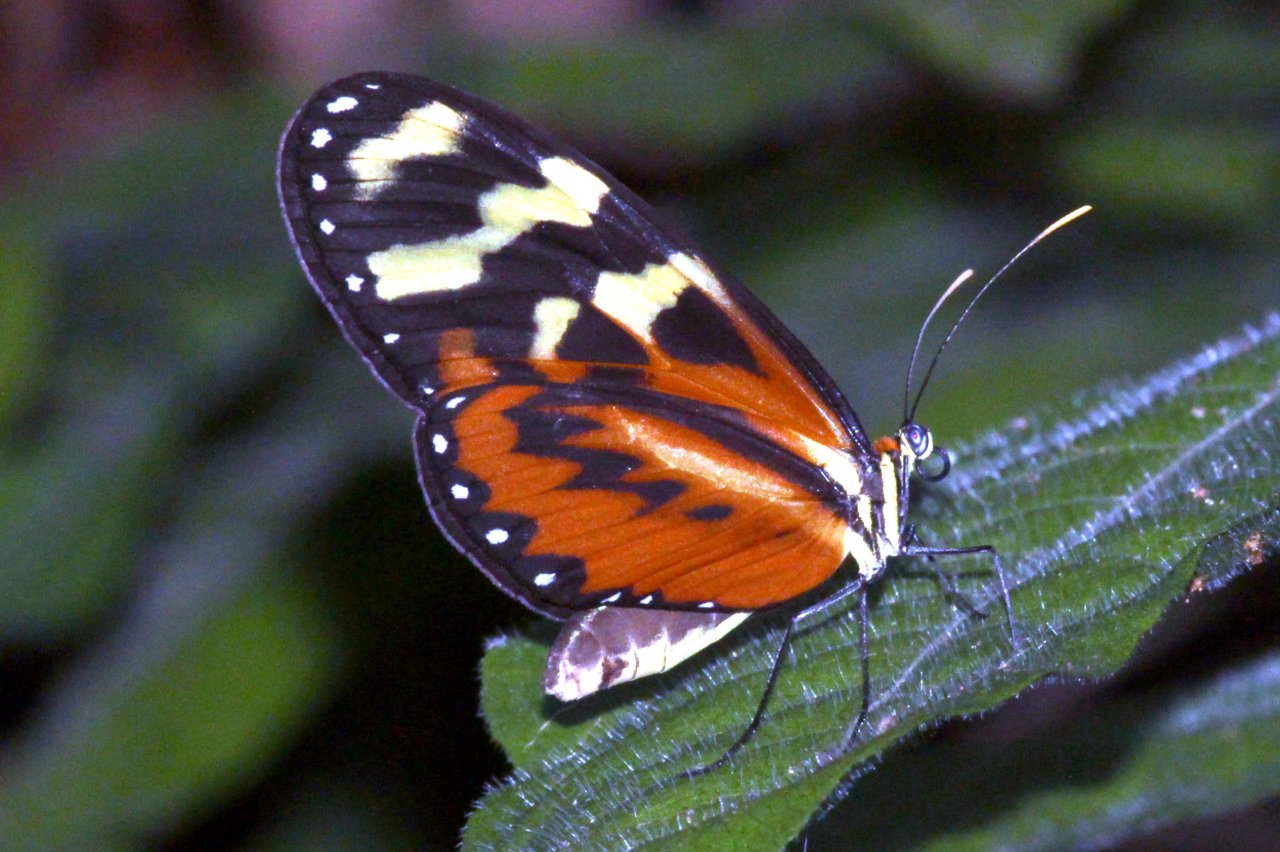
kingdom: Animalia
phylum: Arthropoda
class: Insecta
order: Lepidoptera
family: Nymphalidae
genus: Mechanitis
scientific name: Mechanitis polymnia
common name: Polymnia Tigerwing
